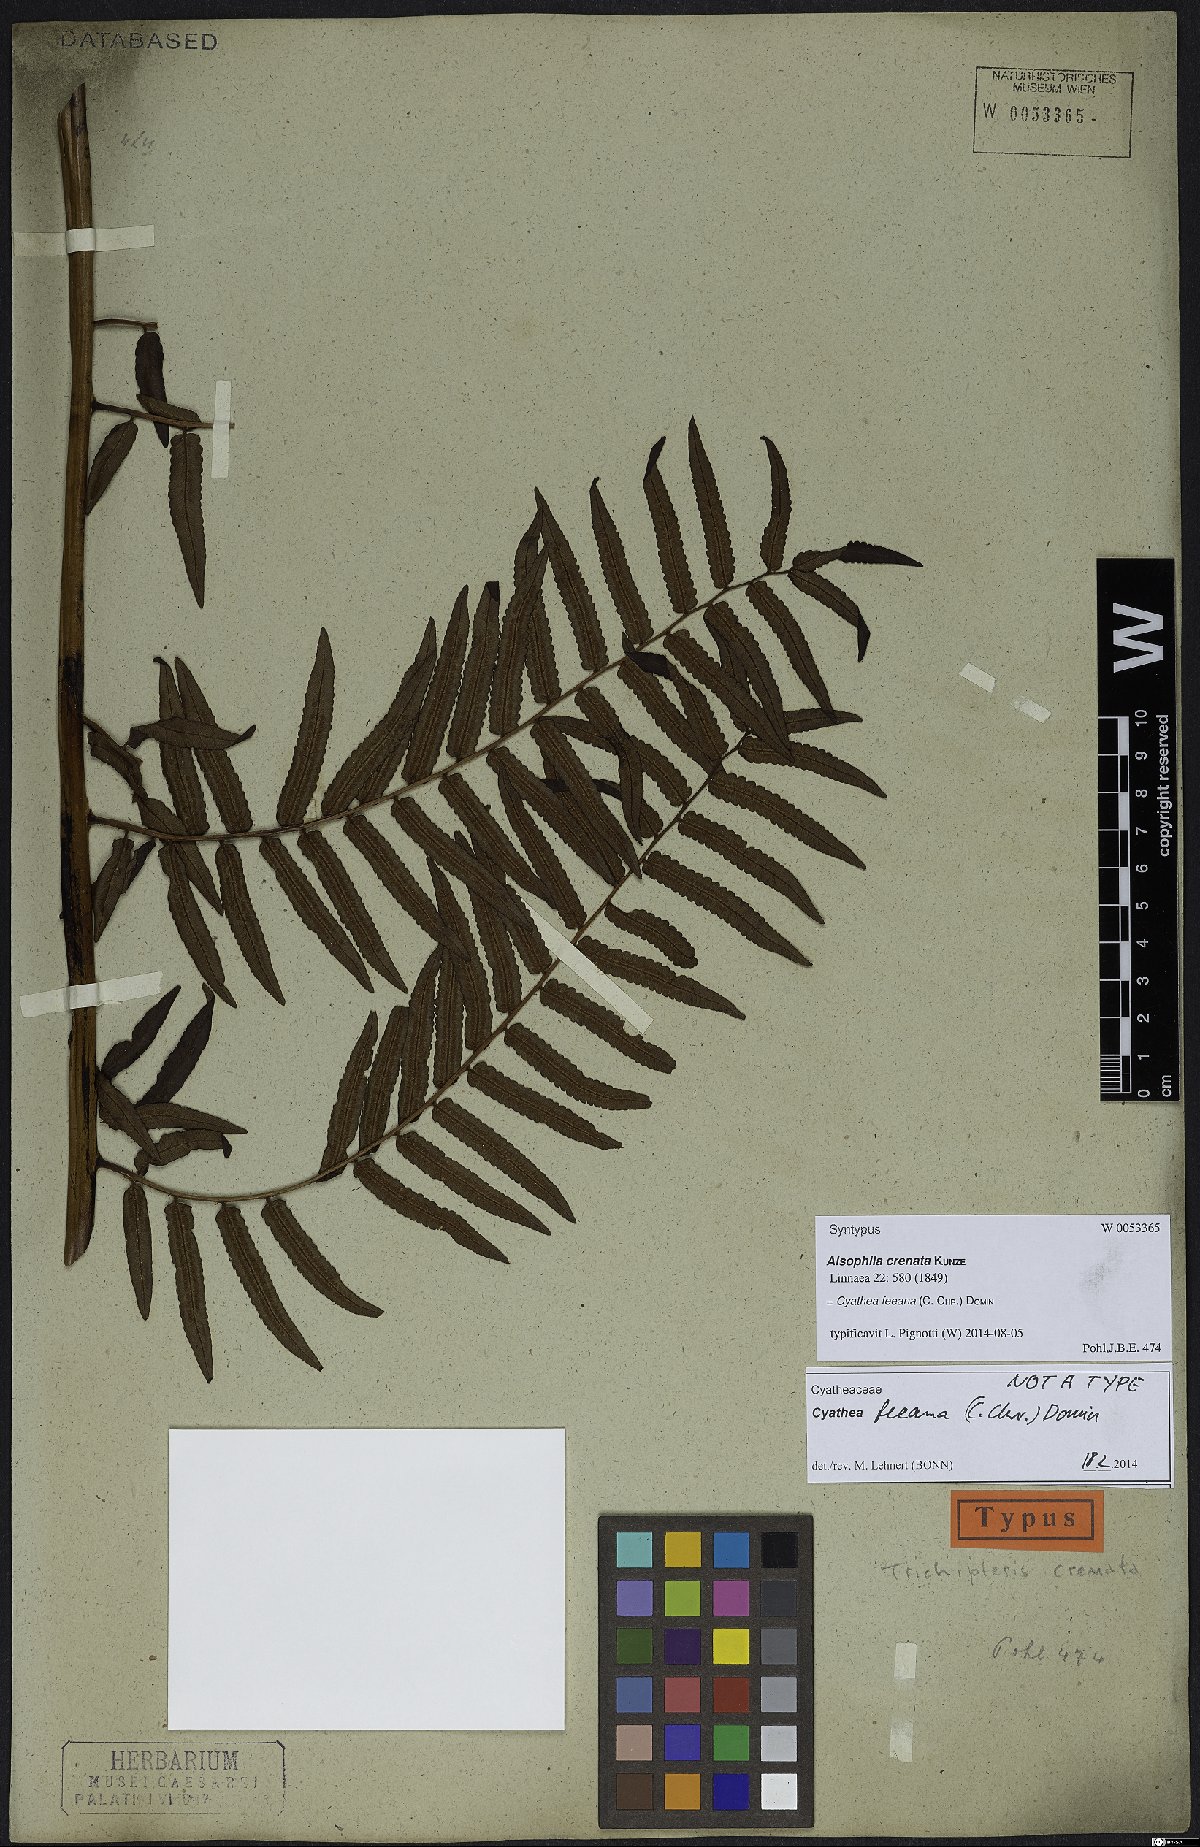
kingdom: Plantae
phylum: Tracheophyta
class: Polypodiopsida
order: Cyatheales
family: Cyatheaceae
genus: Cyathea
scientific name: Cyathea feeana
